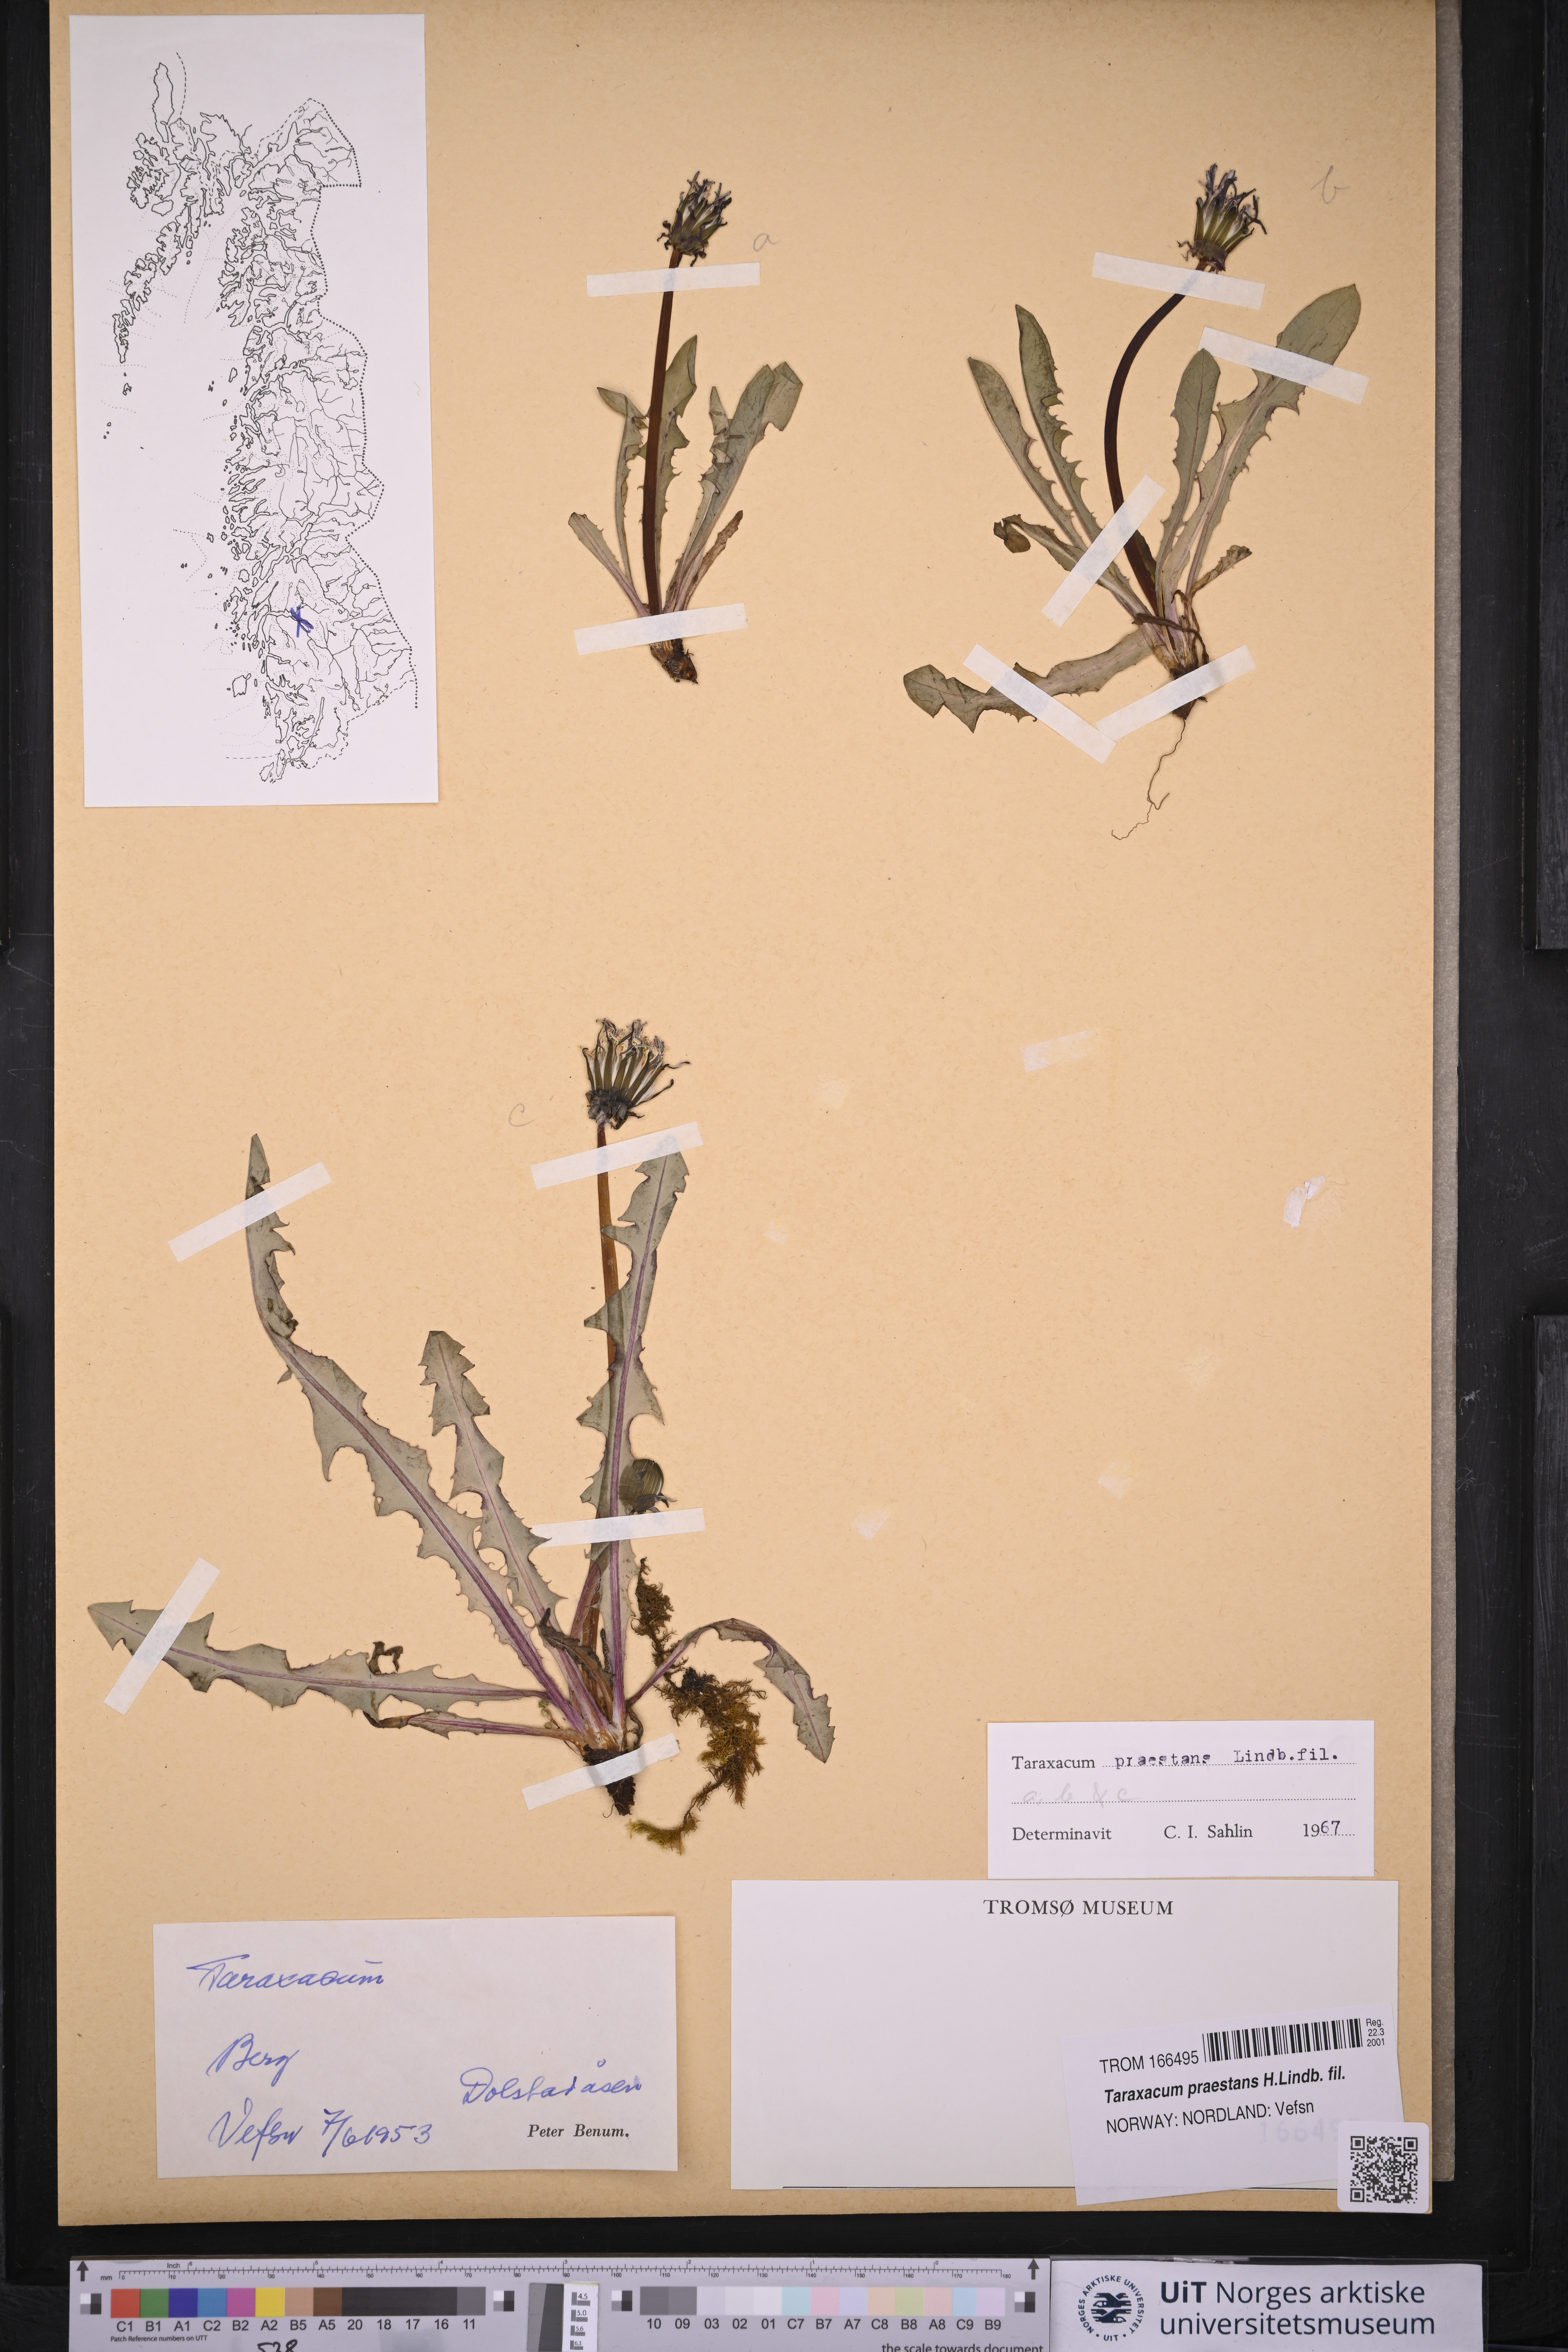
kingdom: Plantae
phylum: Tracheophyta
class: Magnoliopsida
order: Asterales
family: Asteraceae
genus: Taraxacum
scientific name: Taraxacum praestans
